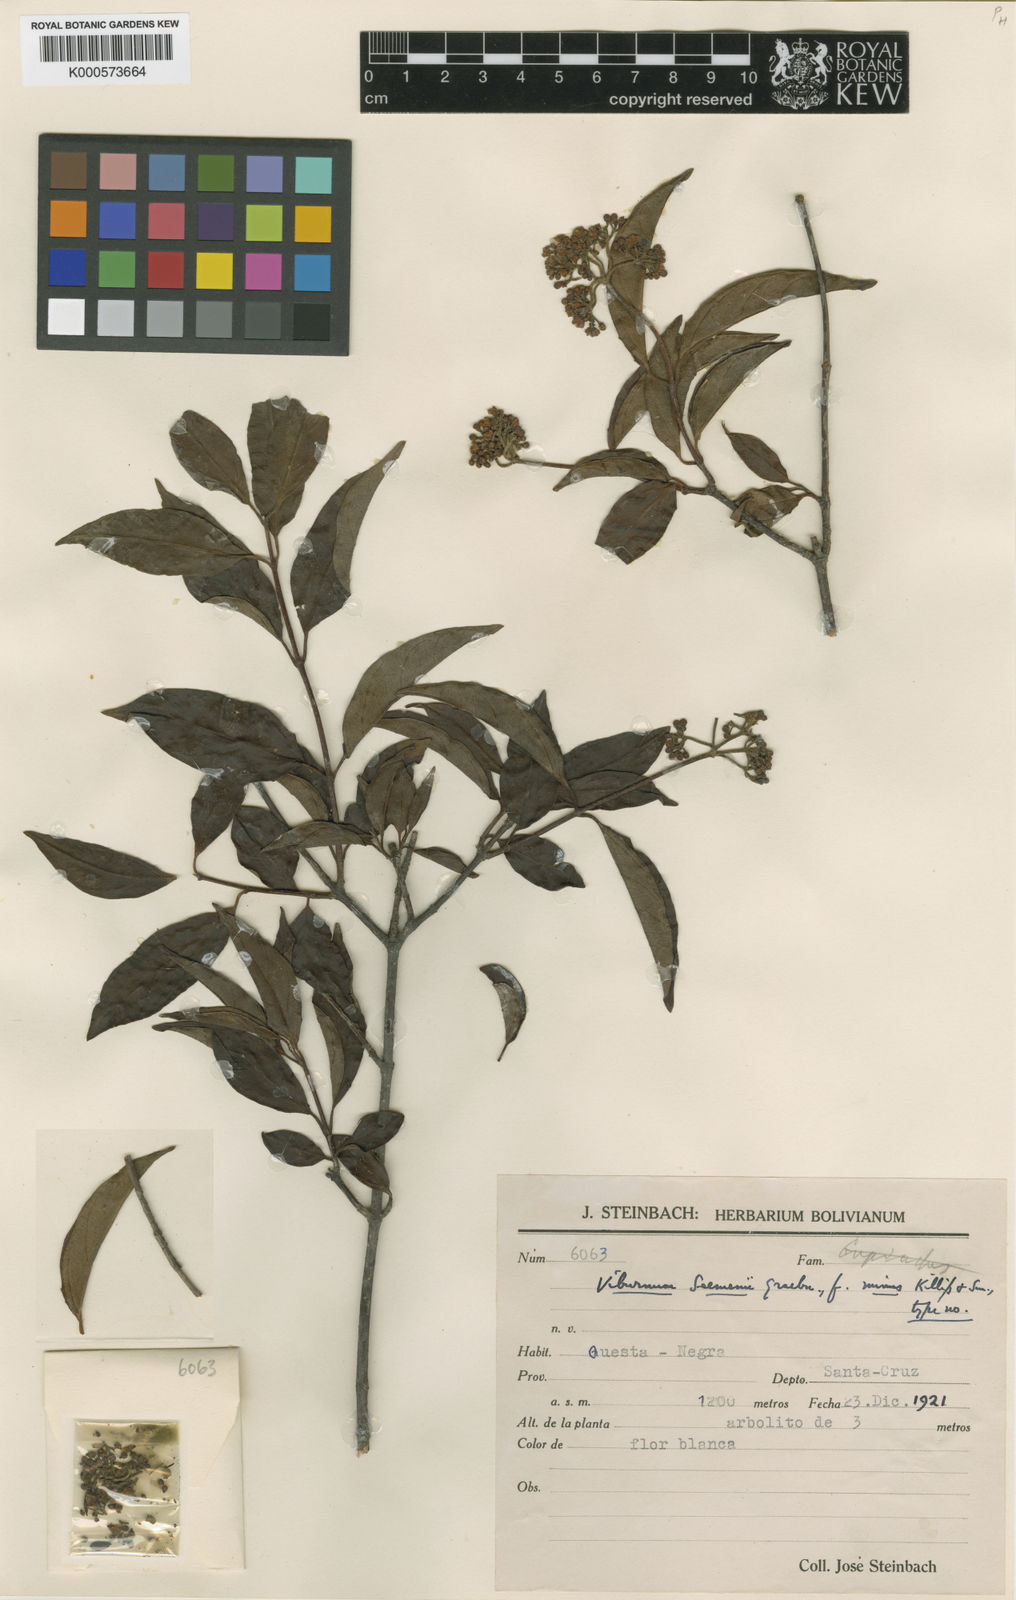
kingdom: Plantae
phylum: Tracheophyta
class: Magnoliopsida
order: Dipsacales
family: Viburnaceae
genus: Viburnum
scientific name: Viburnum seemenii
